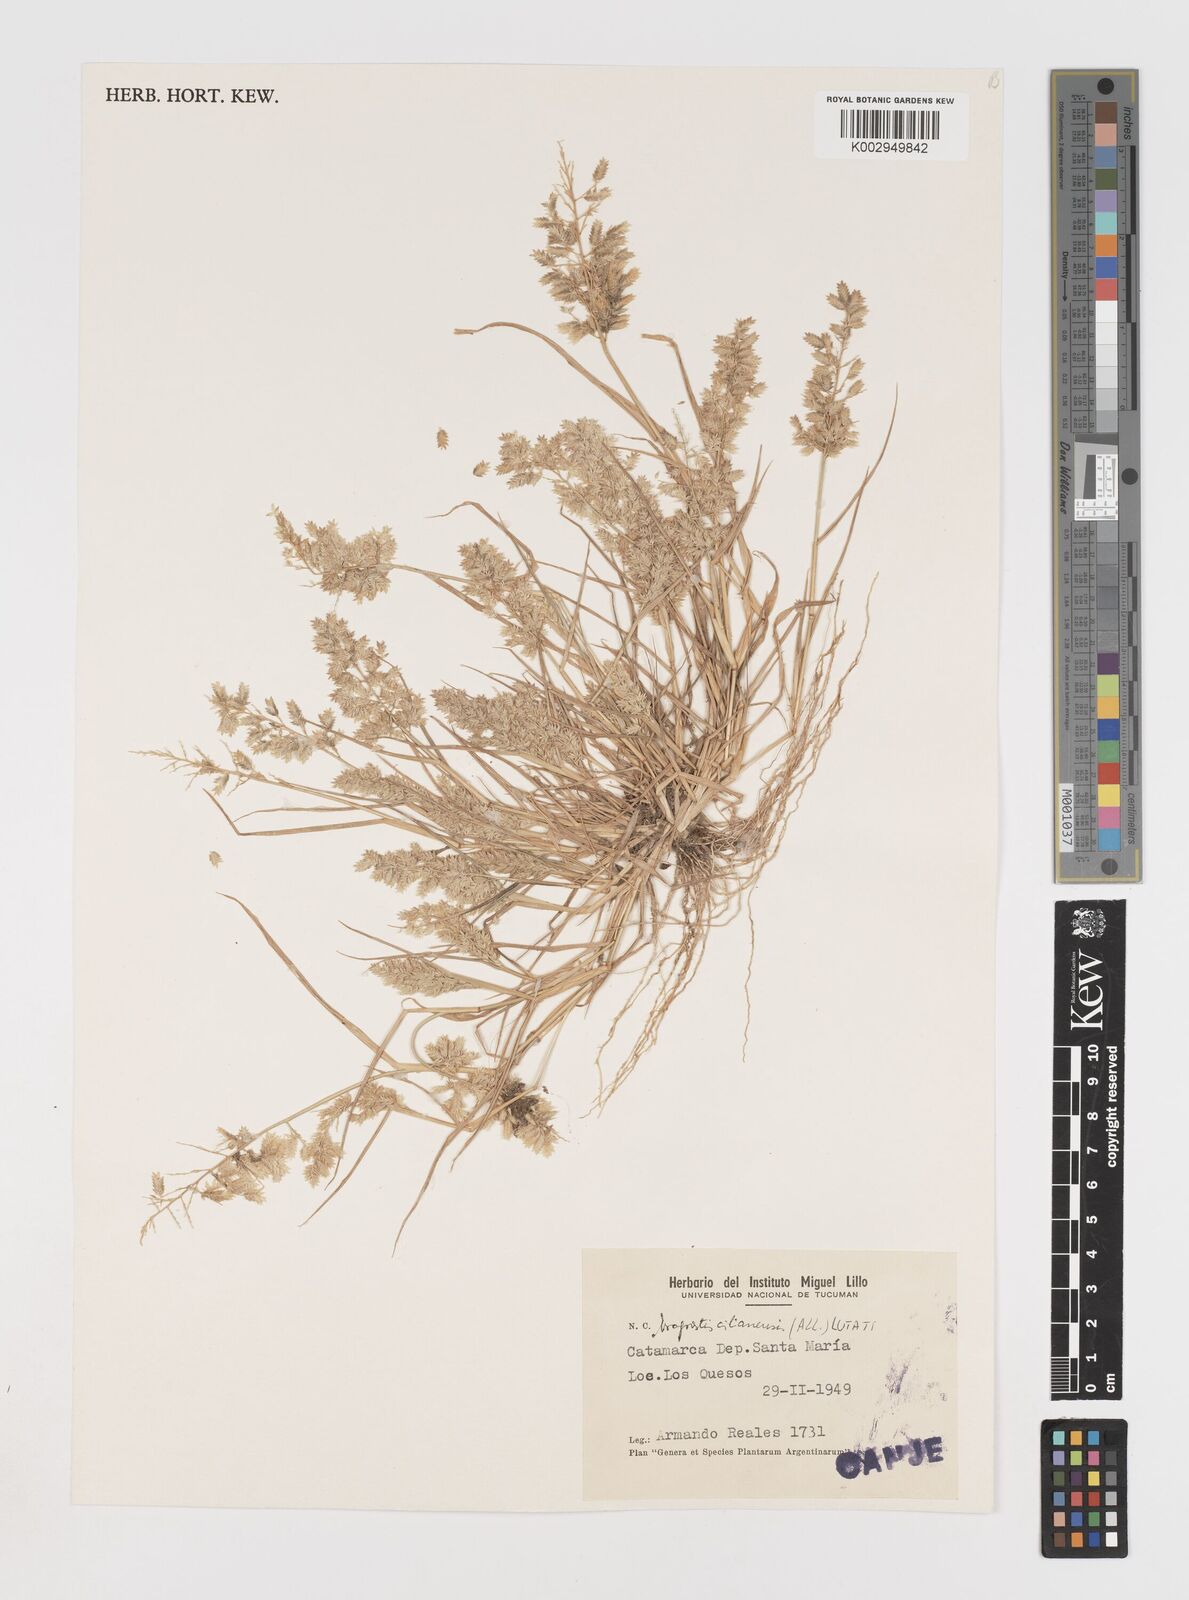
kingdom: Plantae
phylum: Tracheophyta
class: Liliopsida
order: Poales
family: Poaceae
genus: Eragrostis
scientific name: Eragrostis cilianensis
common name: Stinkgrass
